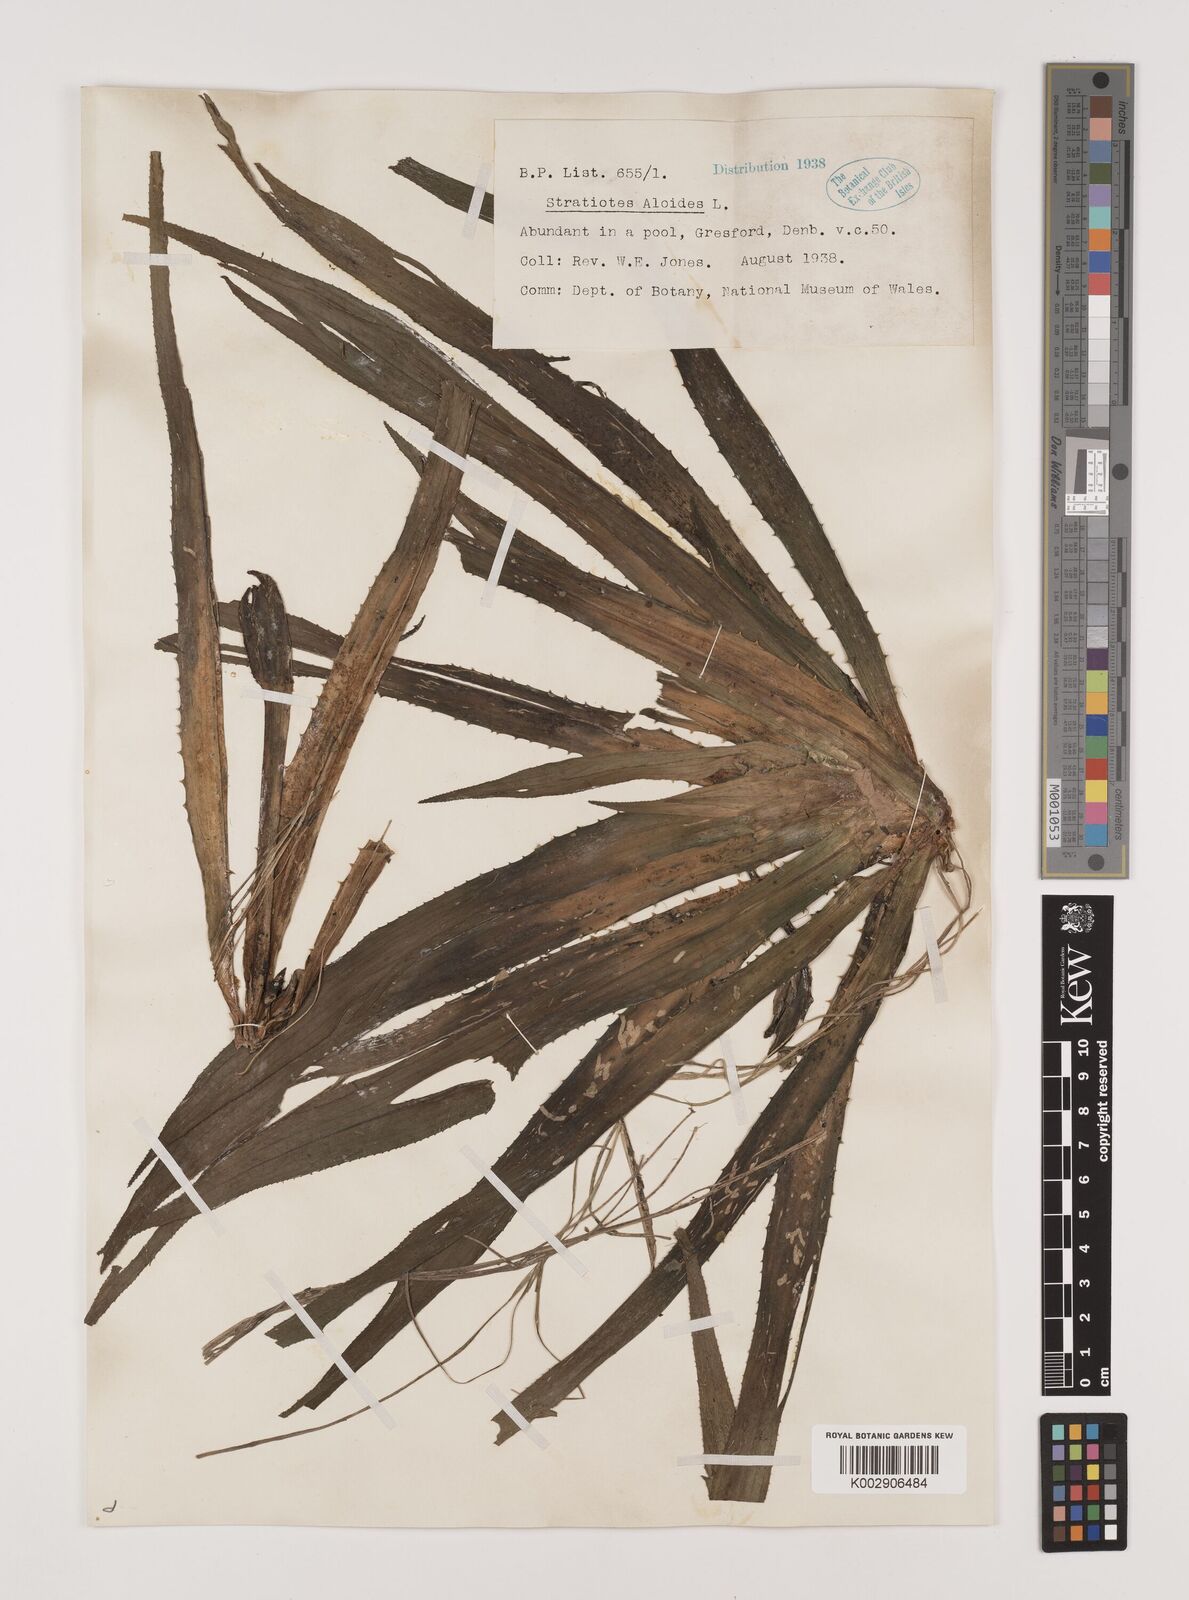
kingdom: Plantae
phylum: Tracheophyta
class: Liliopsida
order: Alismatales
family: Hydrocharitaceae
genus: Stratiotes
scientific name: Stratiotes aloides
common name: Water-soldier
